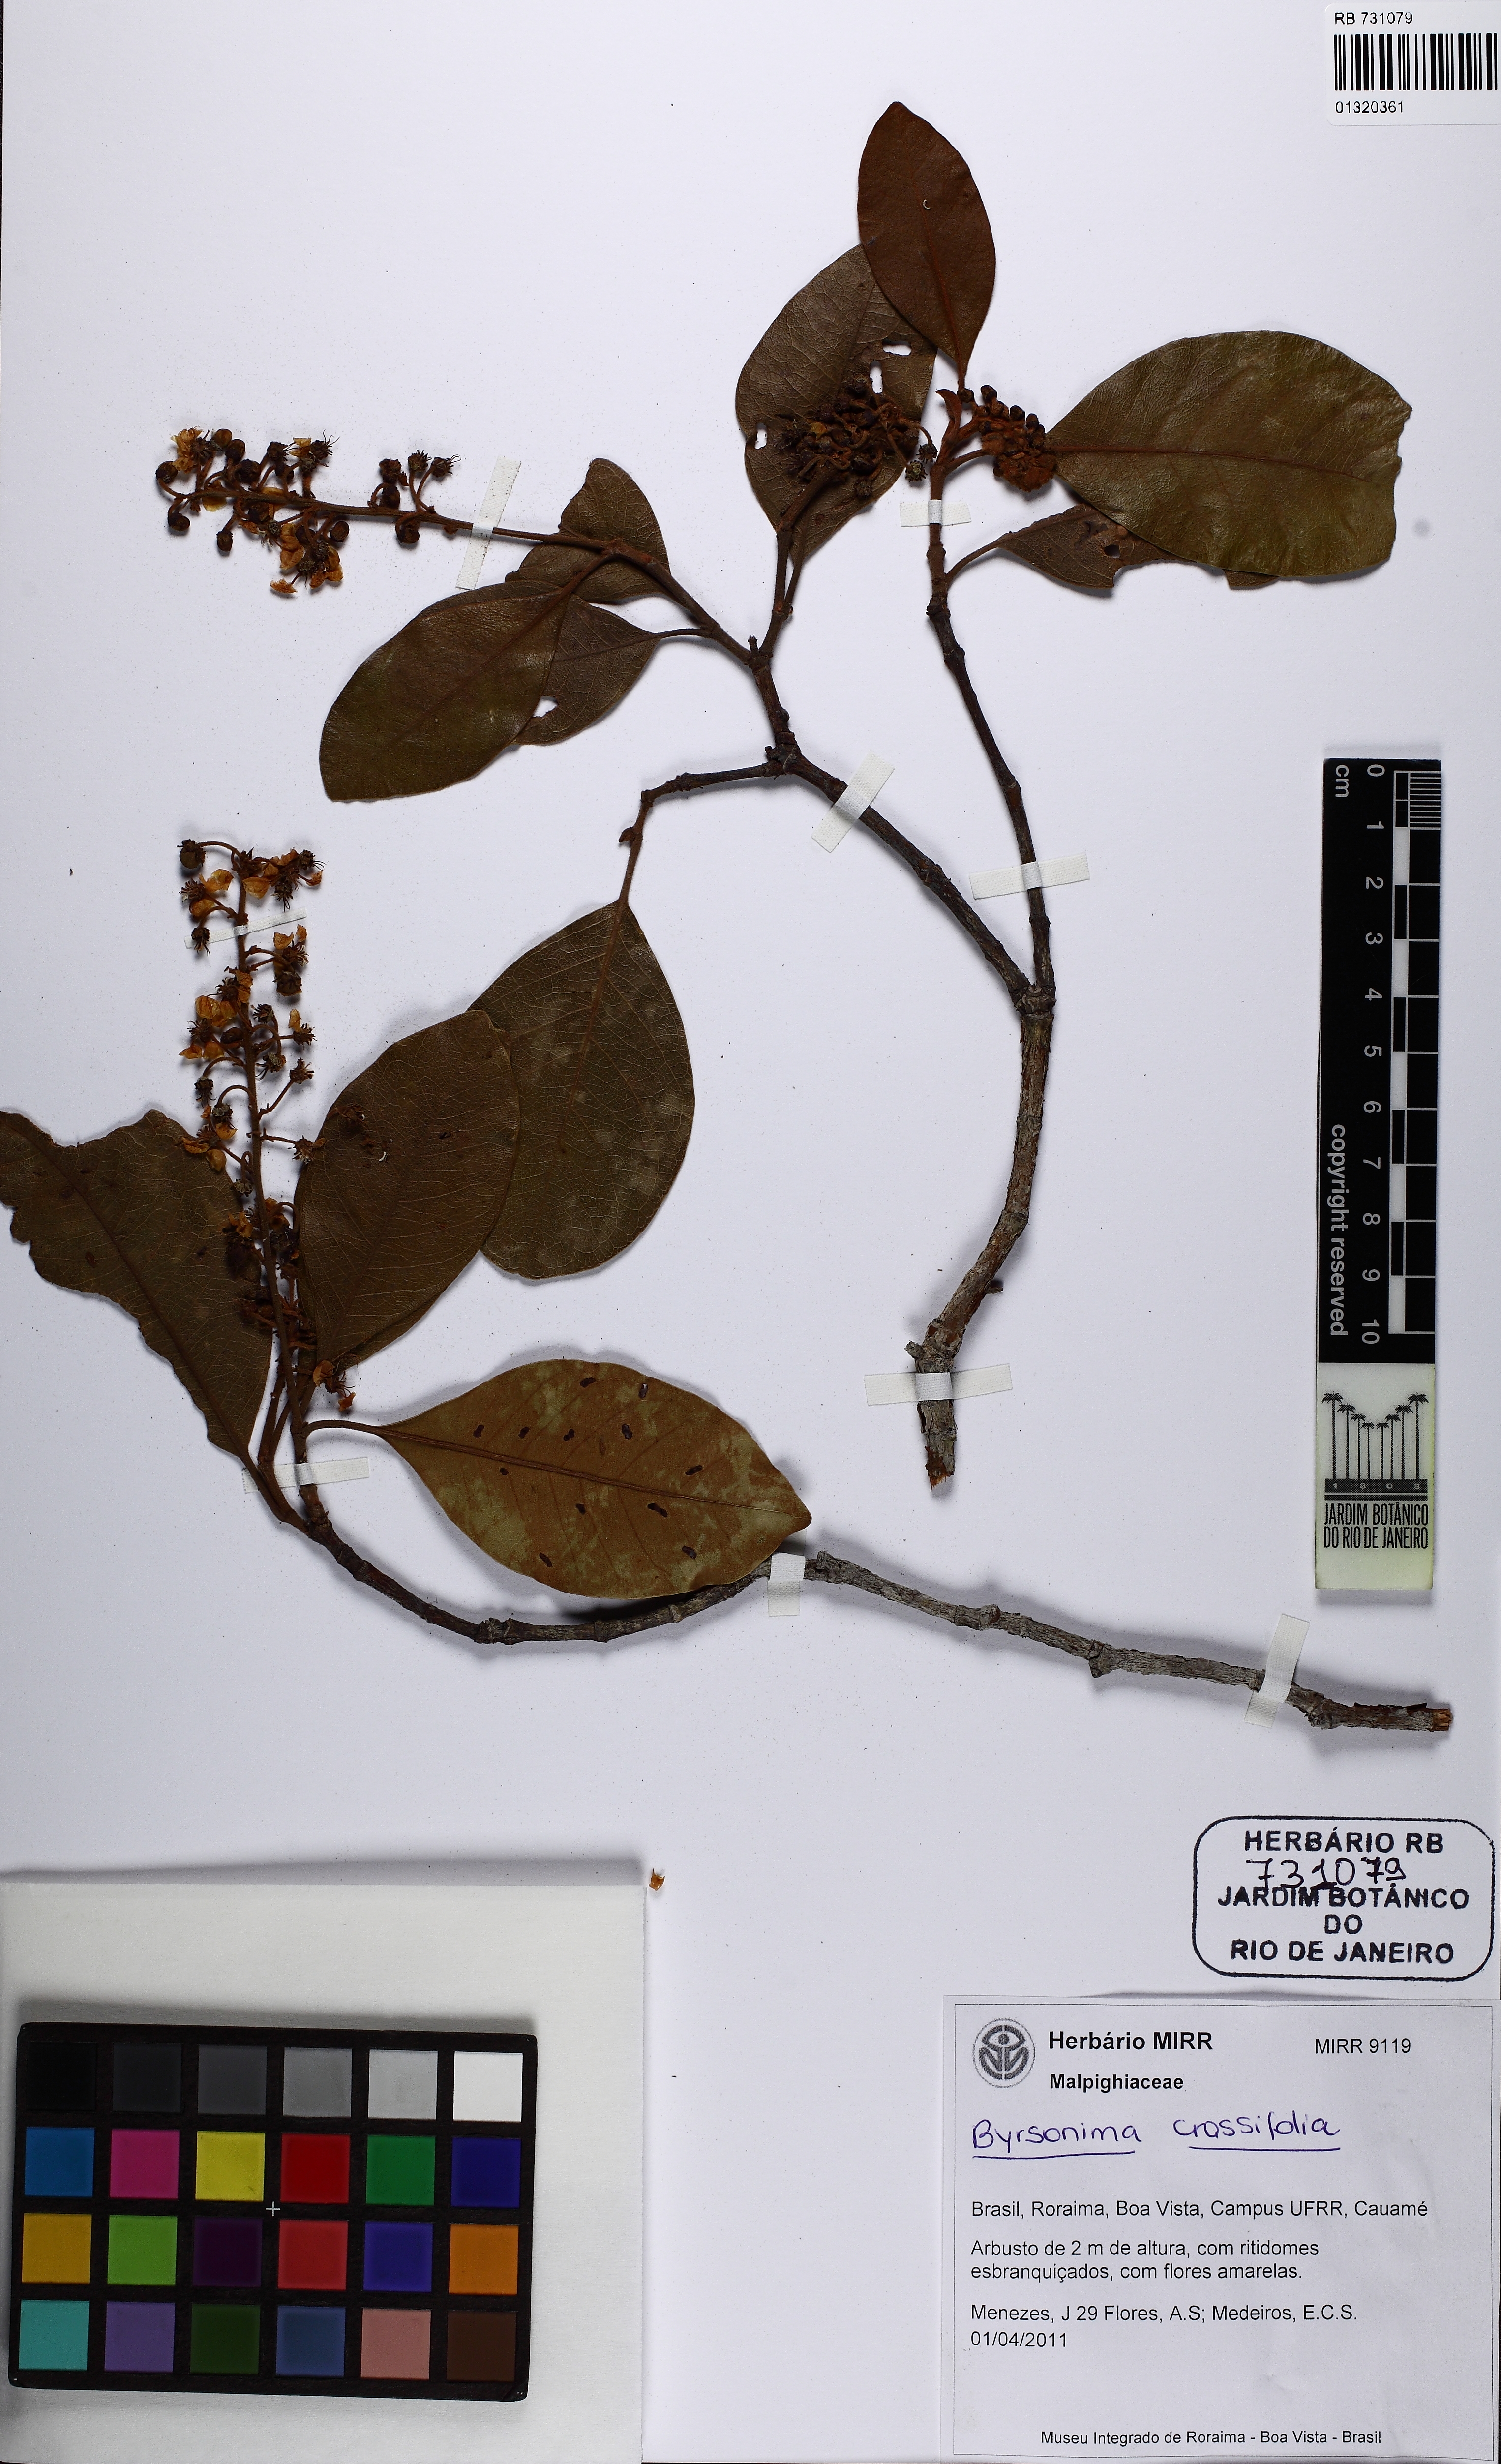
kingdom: Plantae
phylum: Tracheophyta
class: Magnoliopsida
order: Malpighiales
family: Malpighiaceae
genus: Byrsonima
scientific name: Byrsonima crassifolia
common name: Golden spoon
